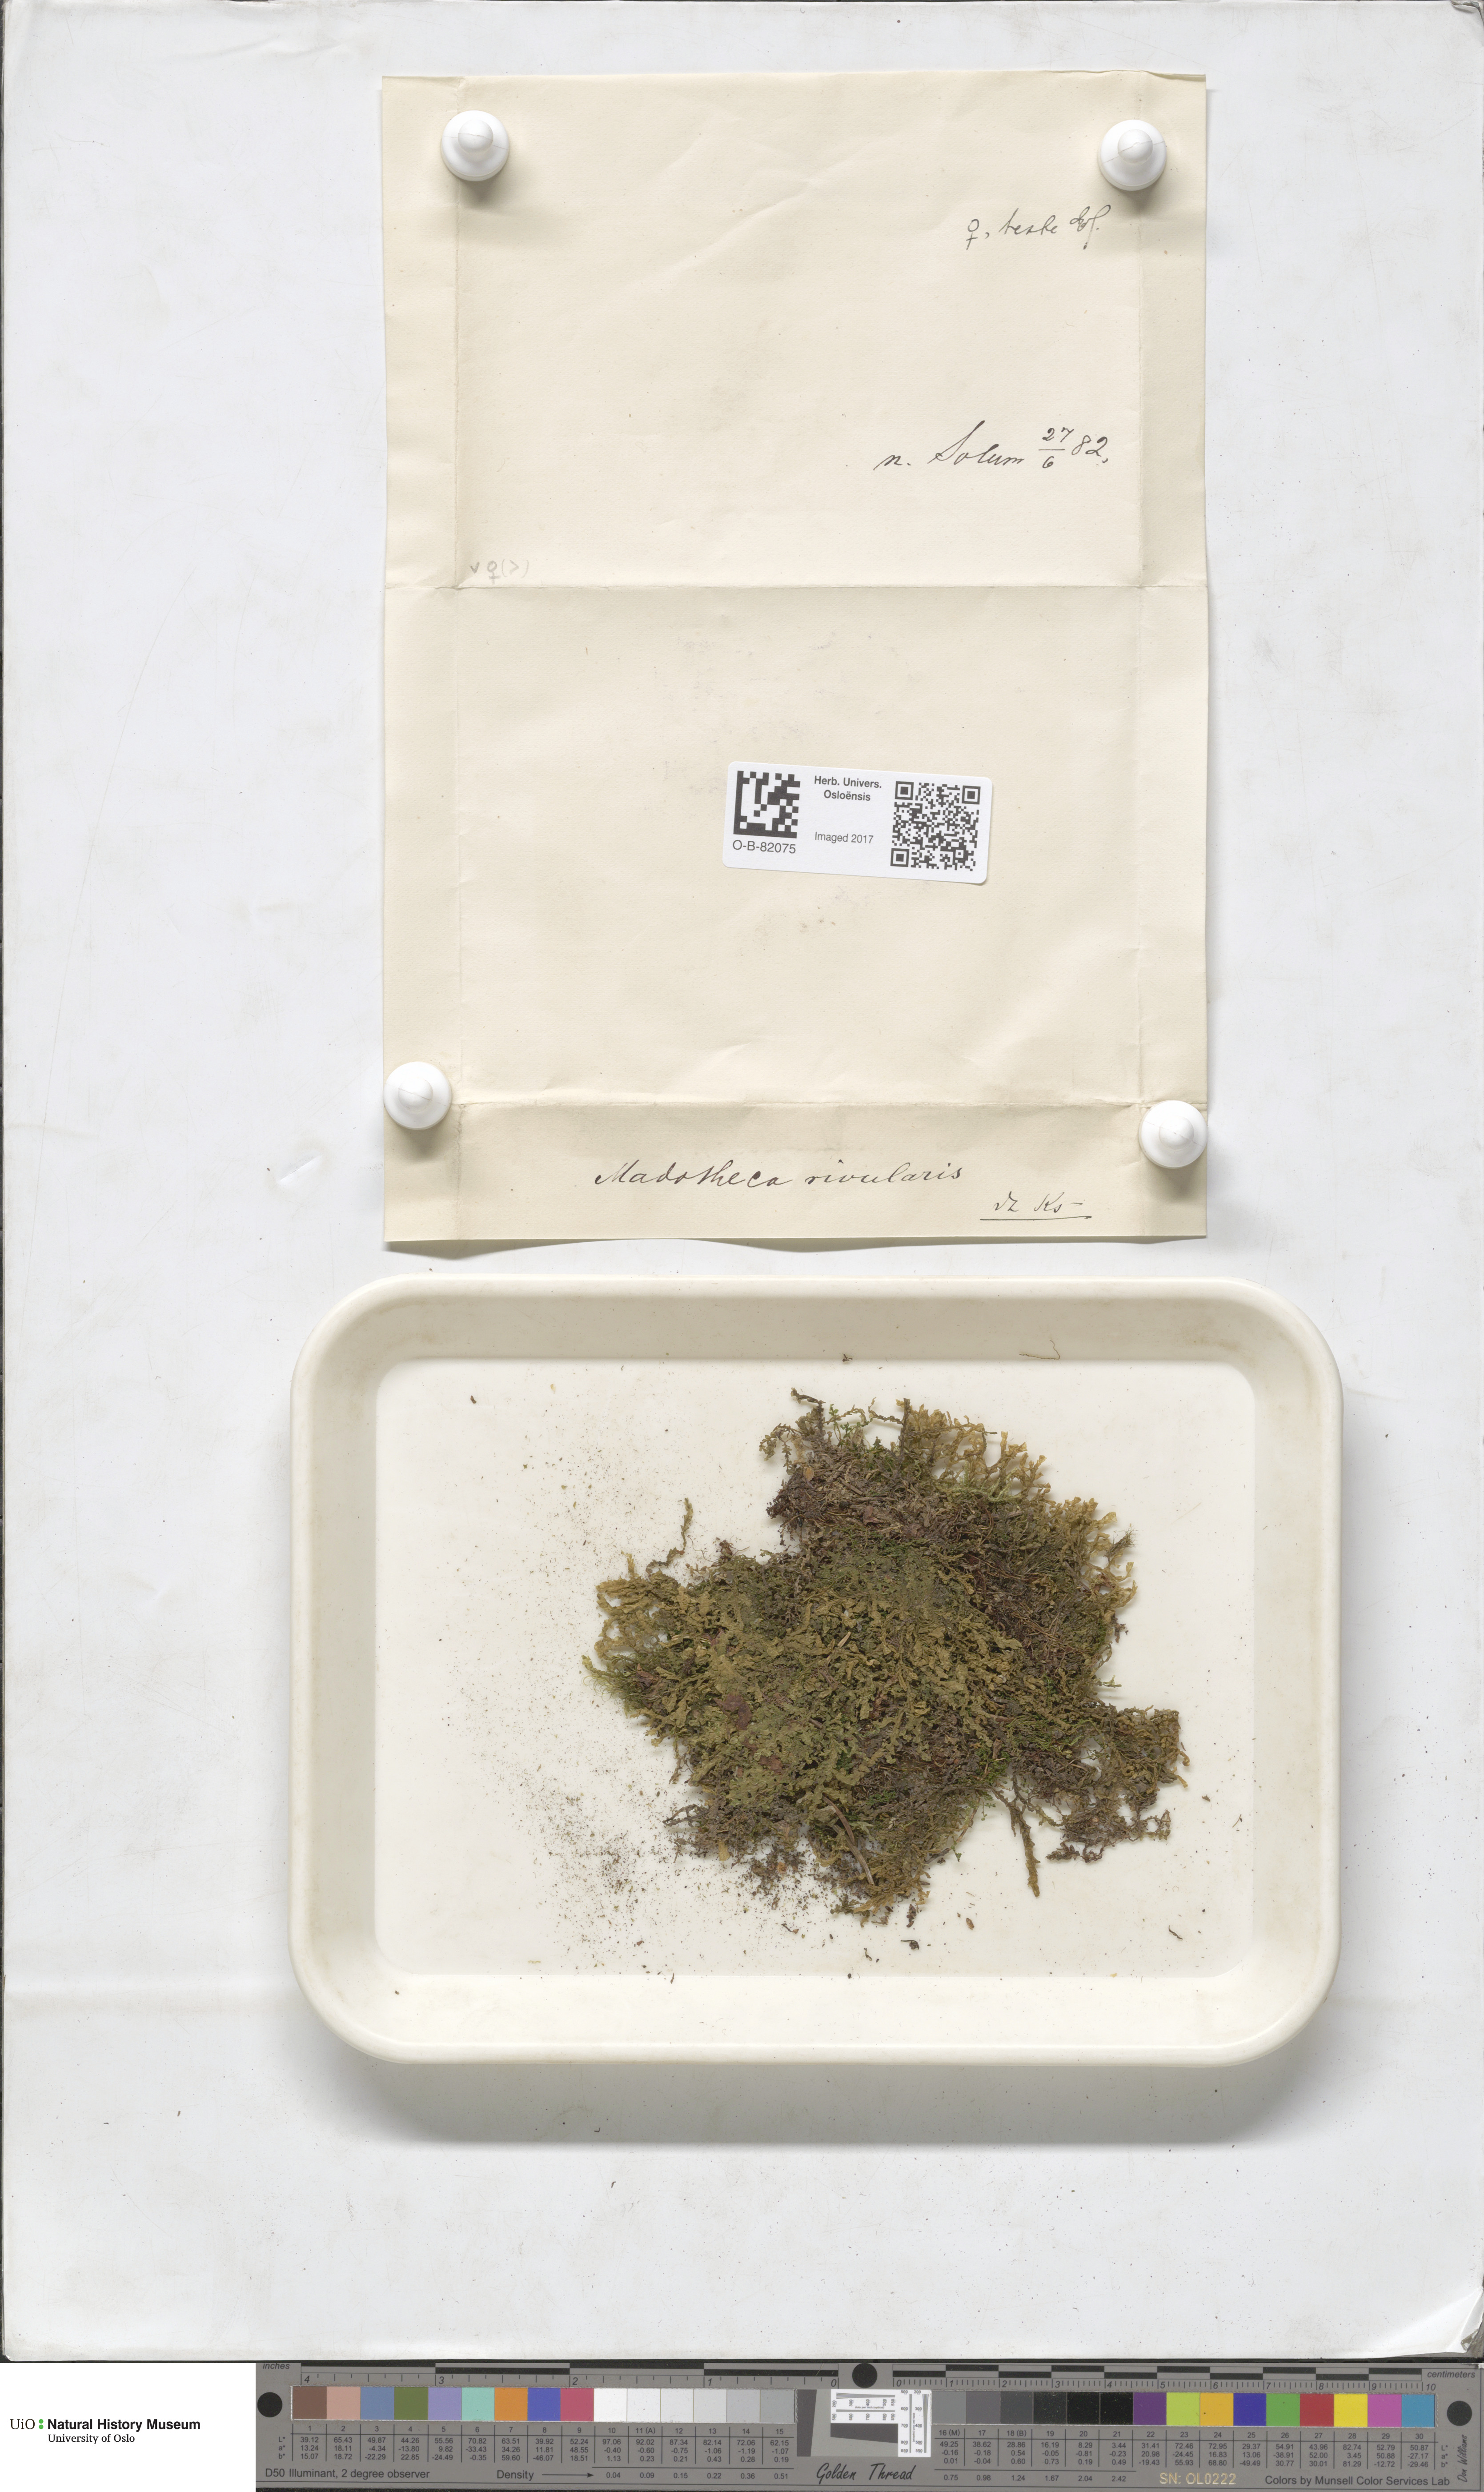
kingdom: Plantae
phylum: Marchantiophyta
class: Jungermanniopsida
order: Porellales
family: Porellaceae
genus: Porella
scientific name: Porella cordaeana
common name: Cliff scalewort
